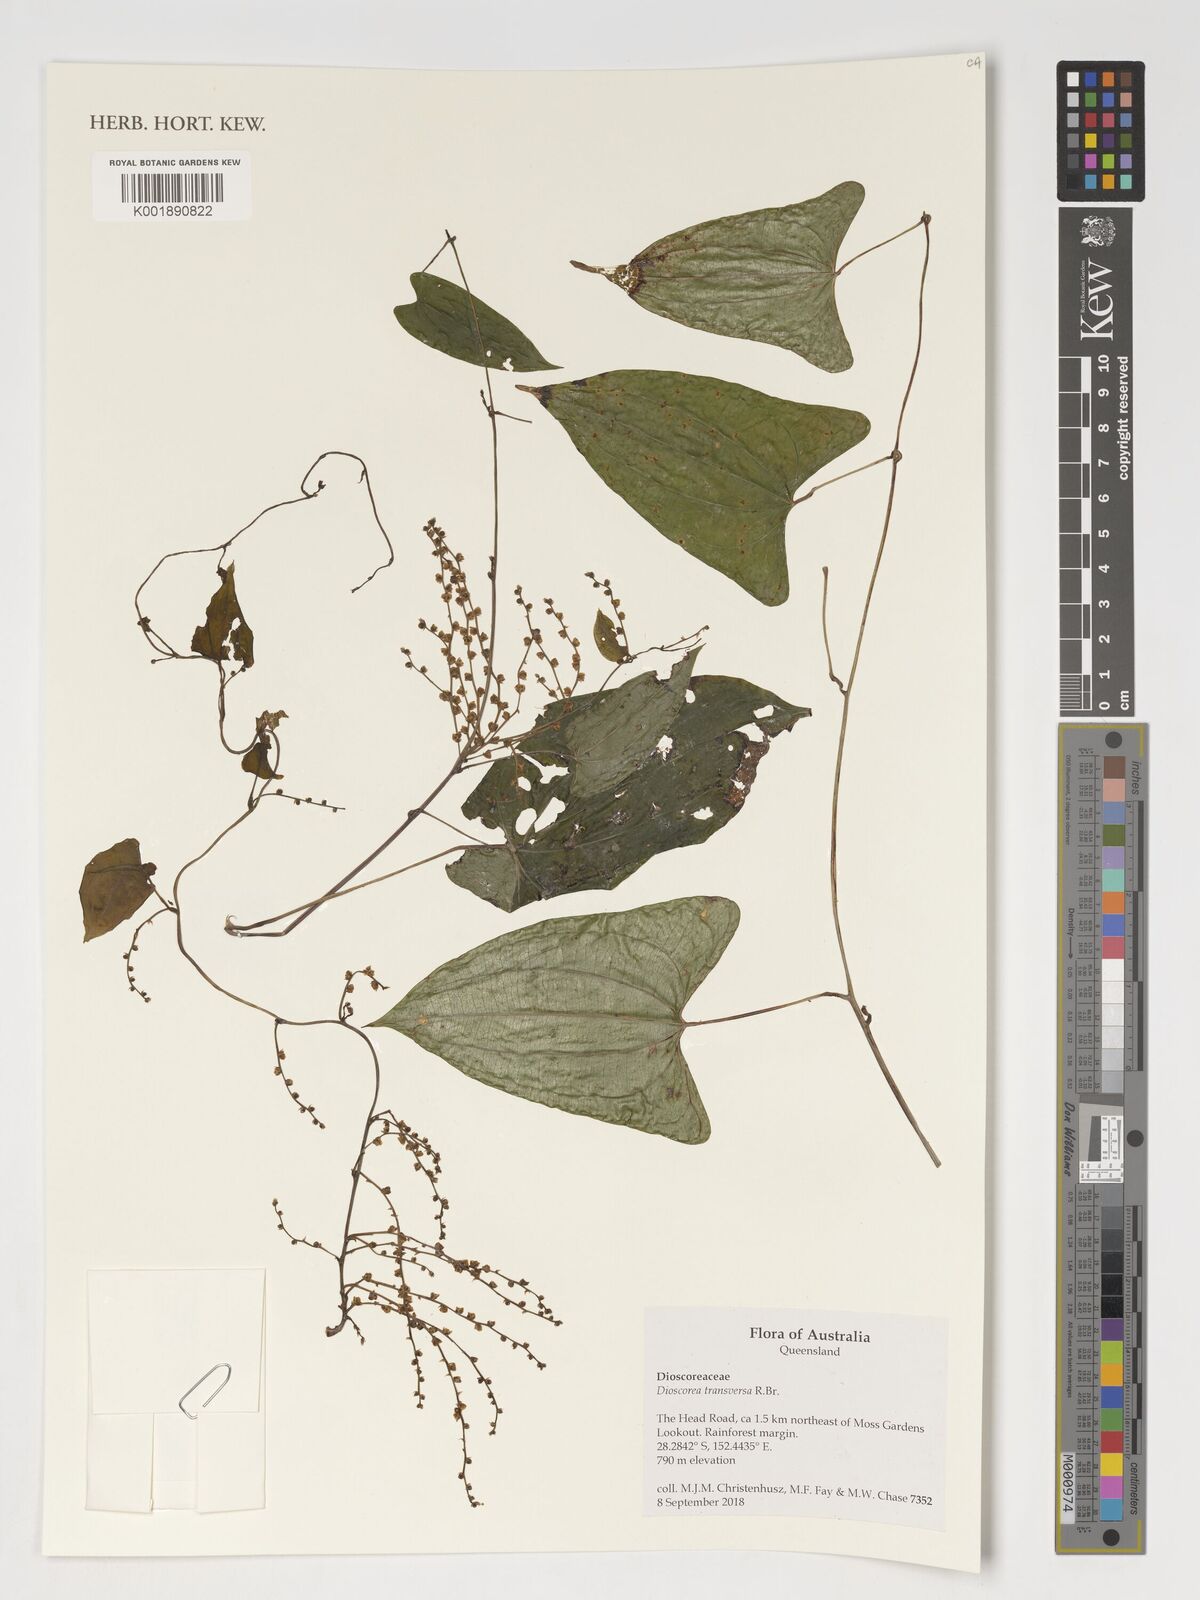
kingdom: Plantae
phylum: Tracheophyta
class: Liliopsida
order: Dioscoreales
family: Dioscoreaceae
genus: Dioscorea
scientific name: Dioscorea transversa
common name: Long yam
